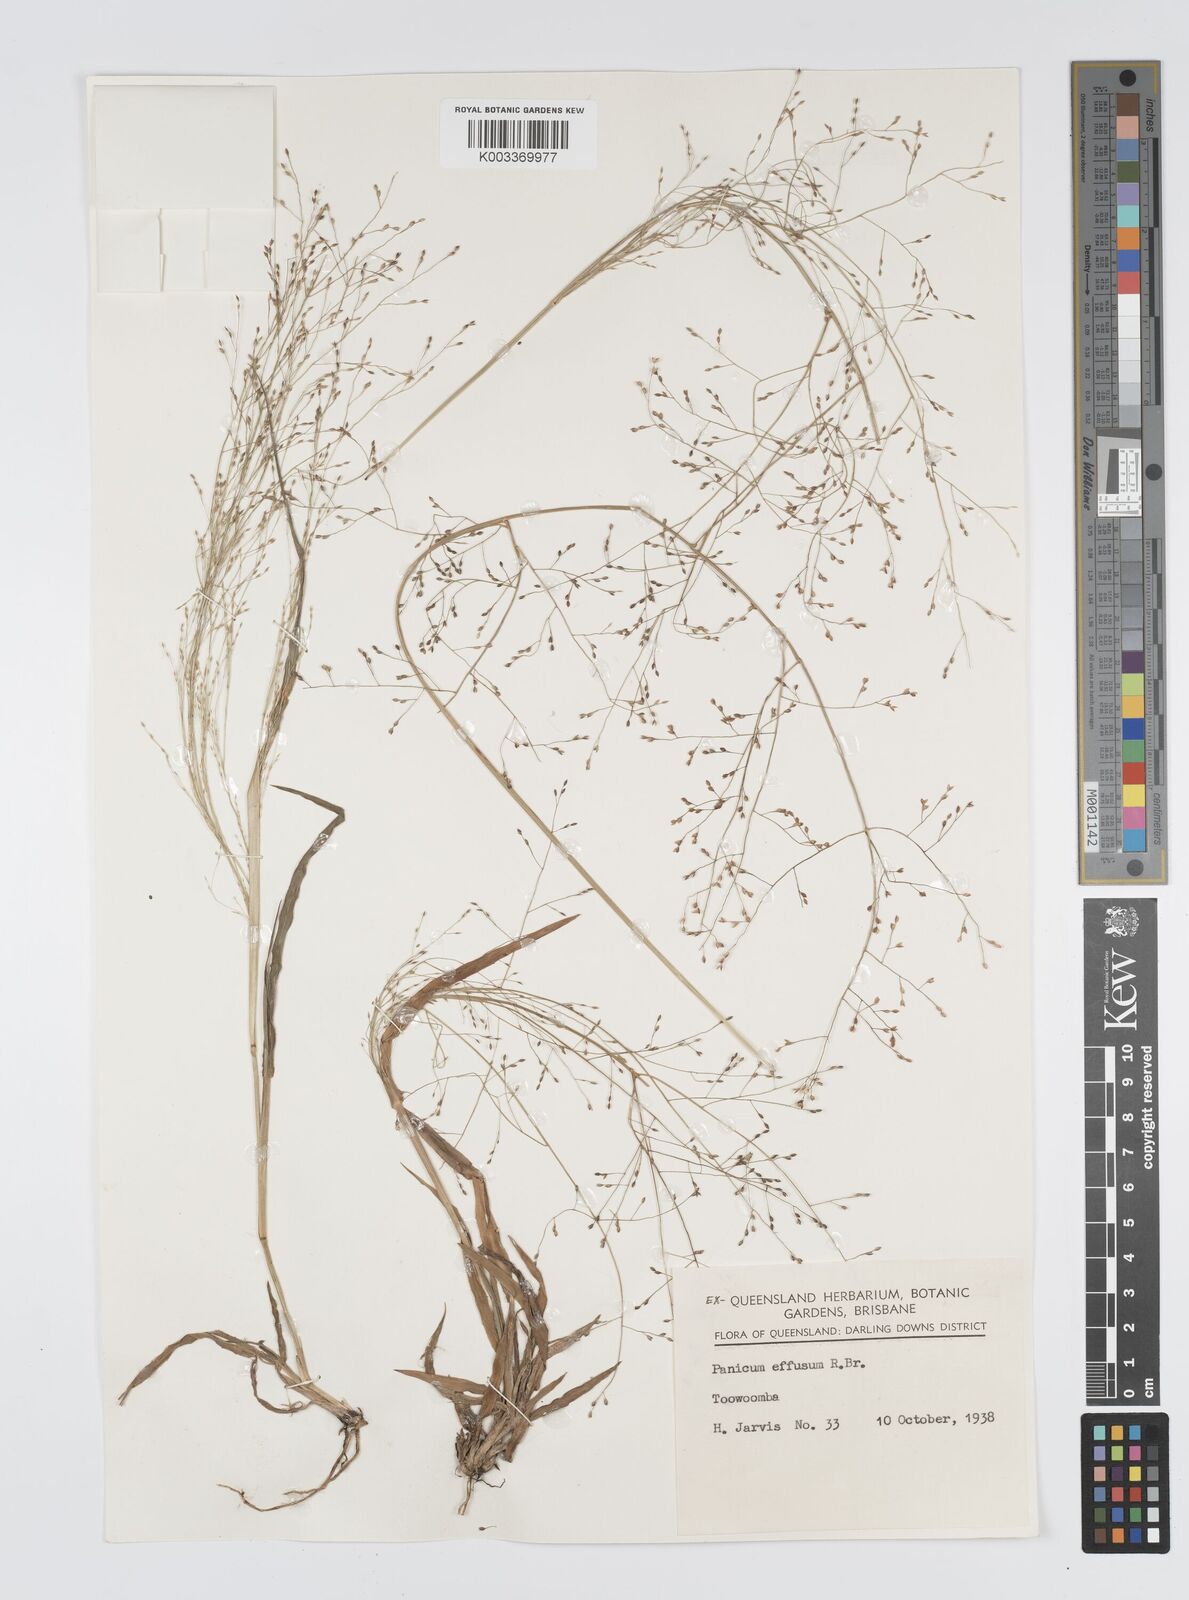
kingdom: Plantae
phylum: Tracheophyta
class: Liliopsida
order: Poales
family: Poaceae
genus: Panicum
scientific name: Panicum effusum
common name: Hairy panic grass
